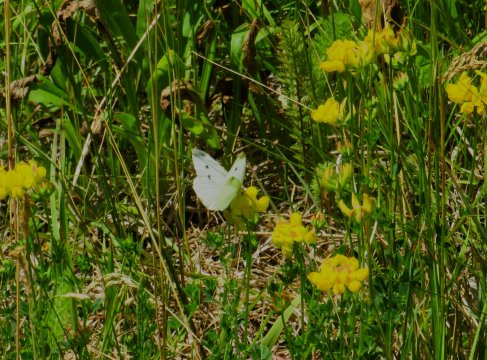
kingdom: Animalia
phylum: Arthropoda
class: Insecta
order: Lepidoptera
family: Pieridae
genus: Pieris
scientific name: Pieris rapae
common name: Cabbage White
